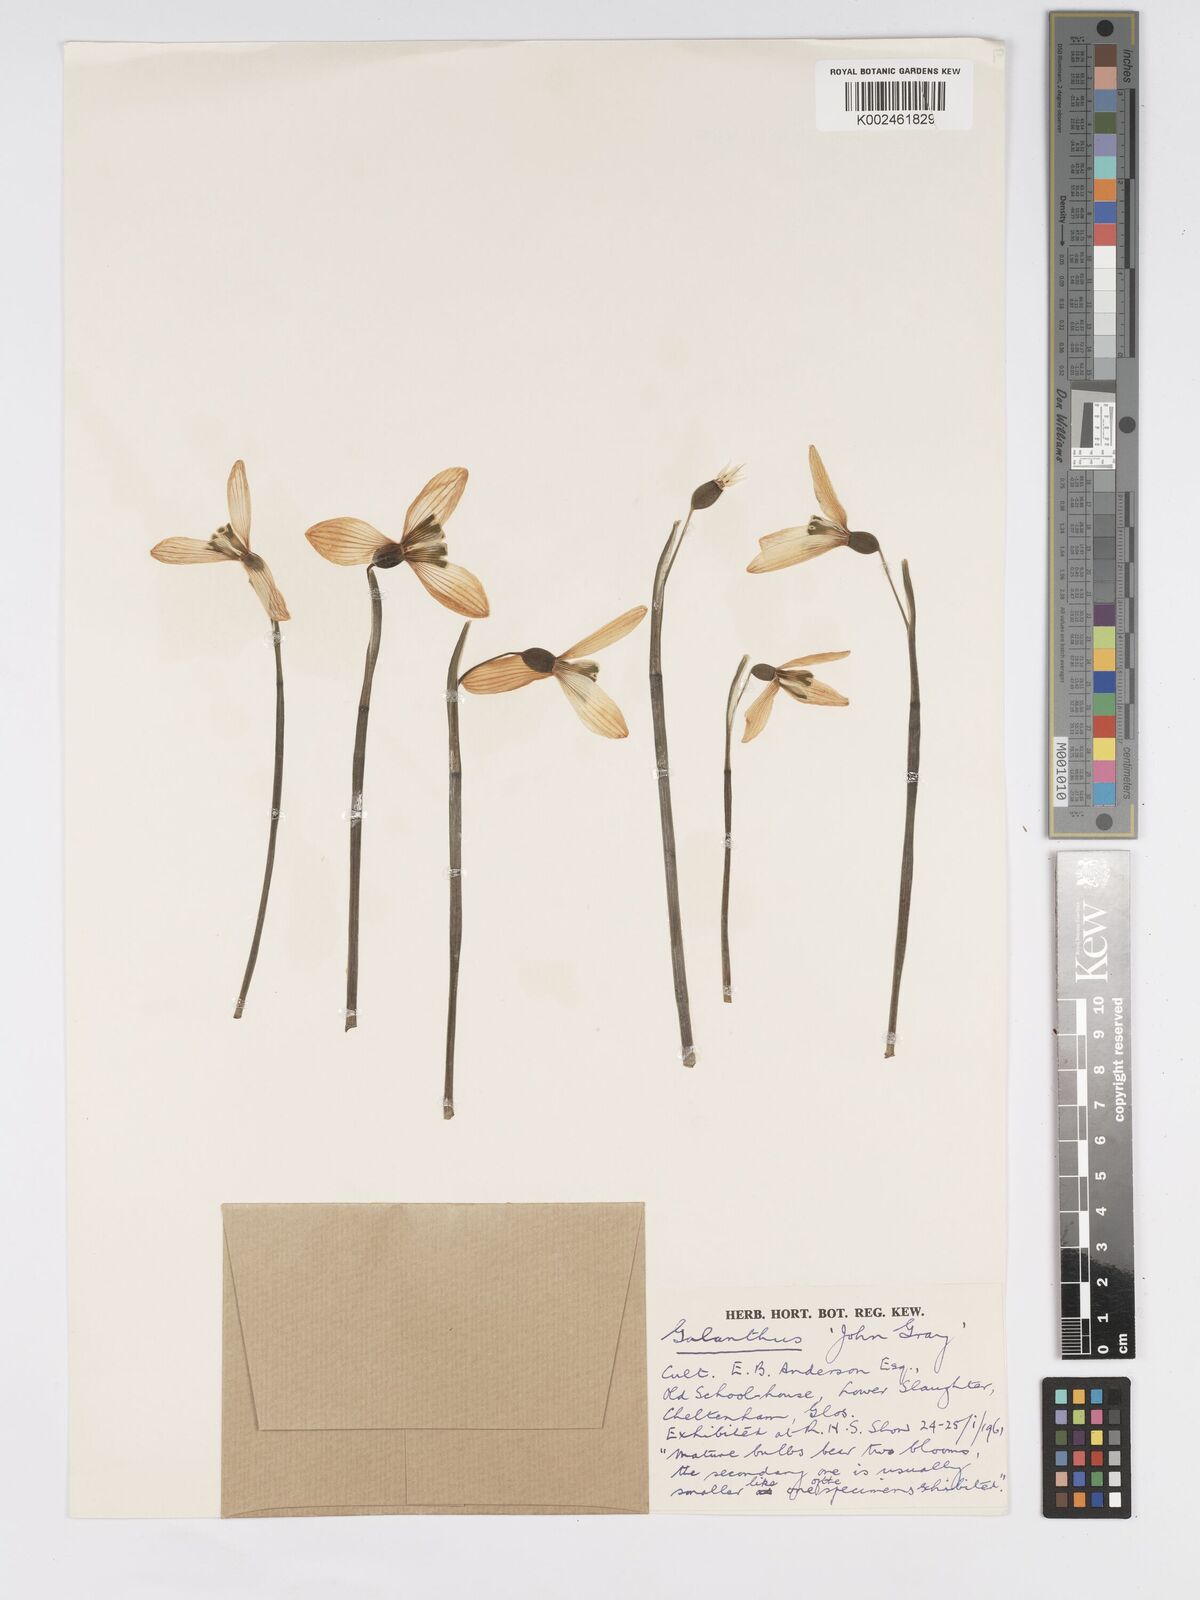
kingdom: Plantae
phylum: Tracheophyta
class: Liliopsida
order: Asparagales
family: Amaryllidaceae
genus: Galanthus
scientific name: Galanthus
